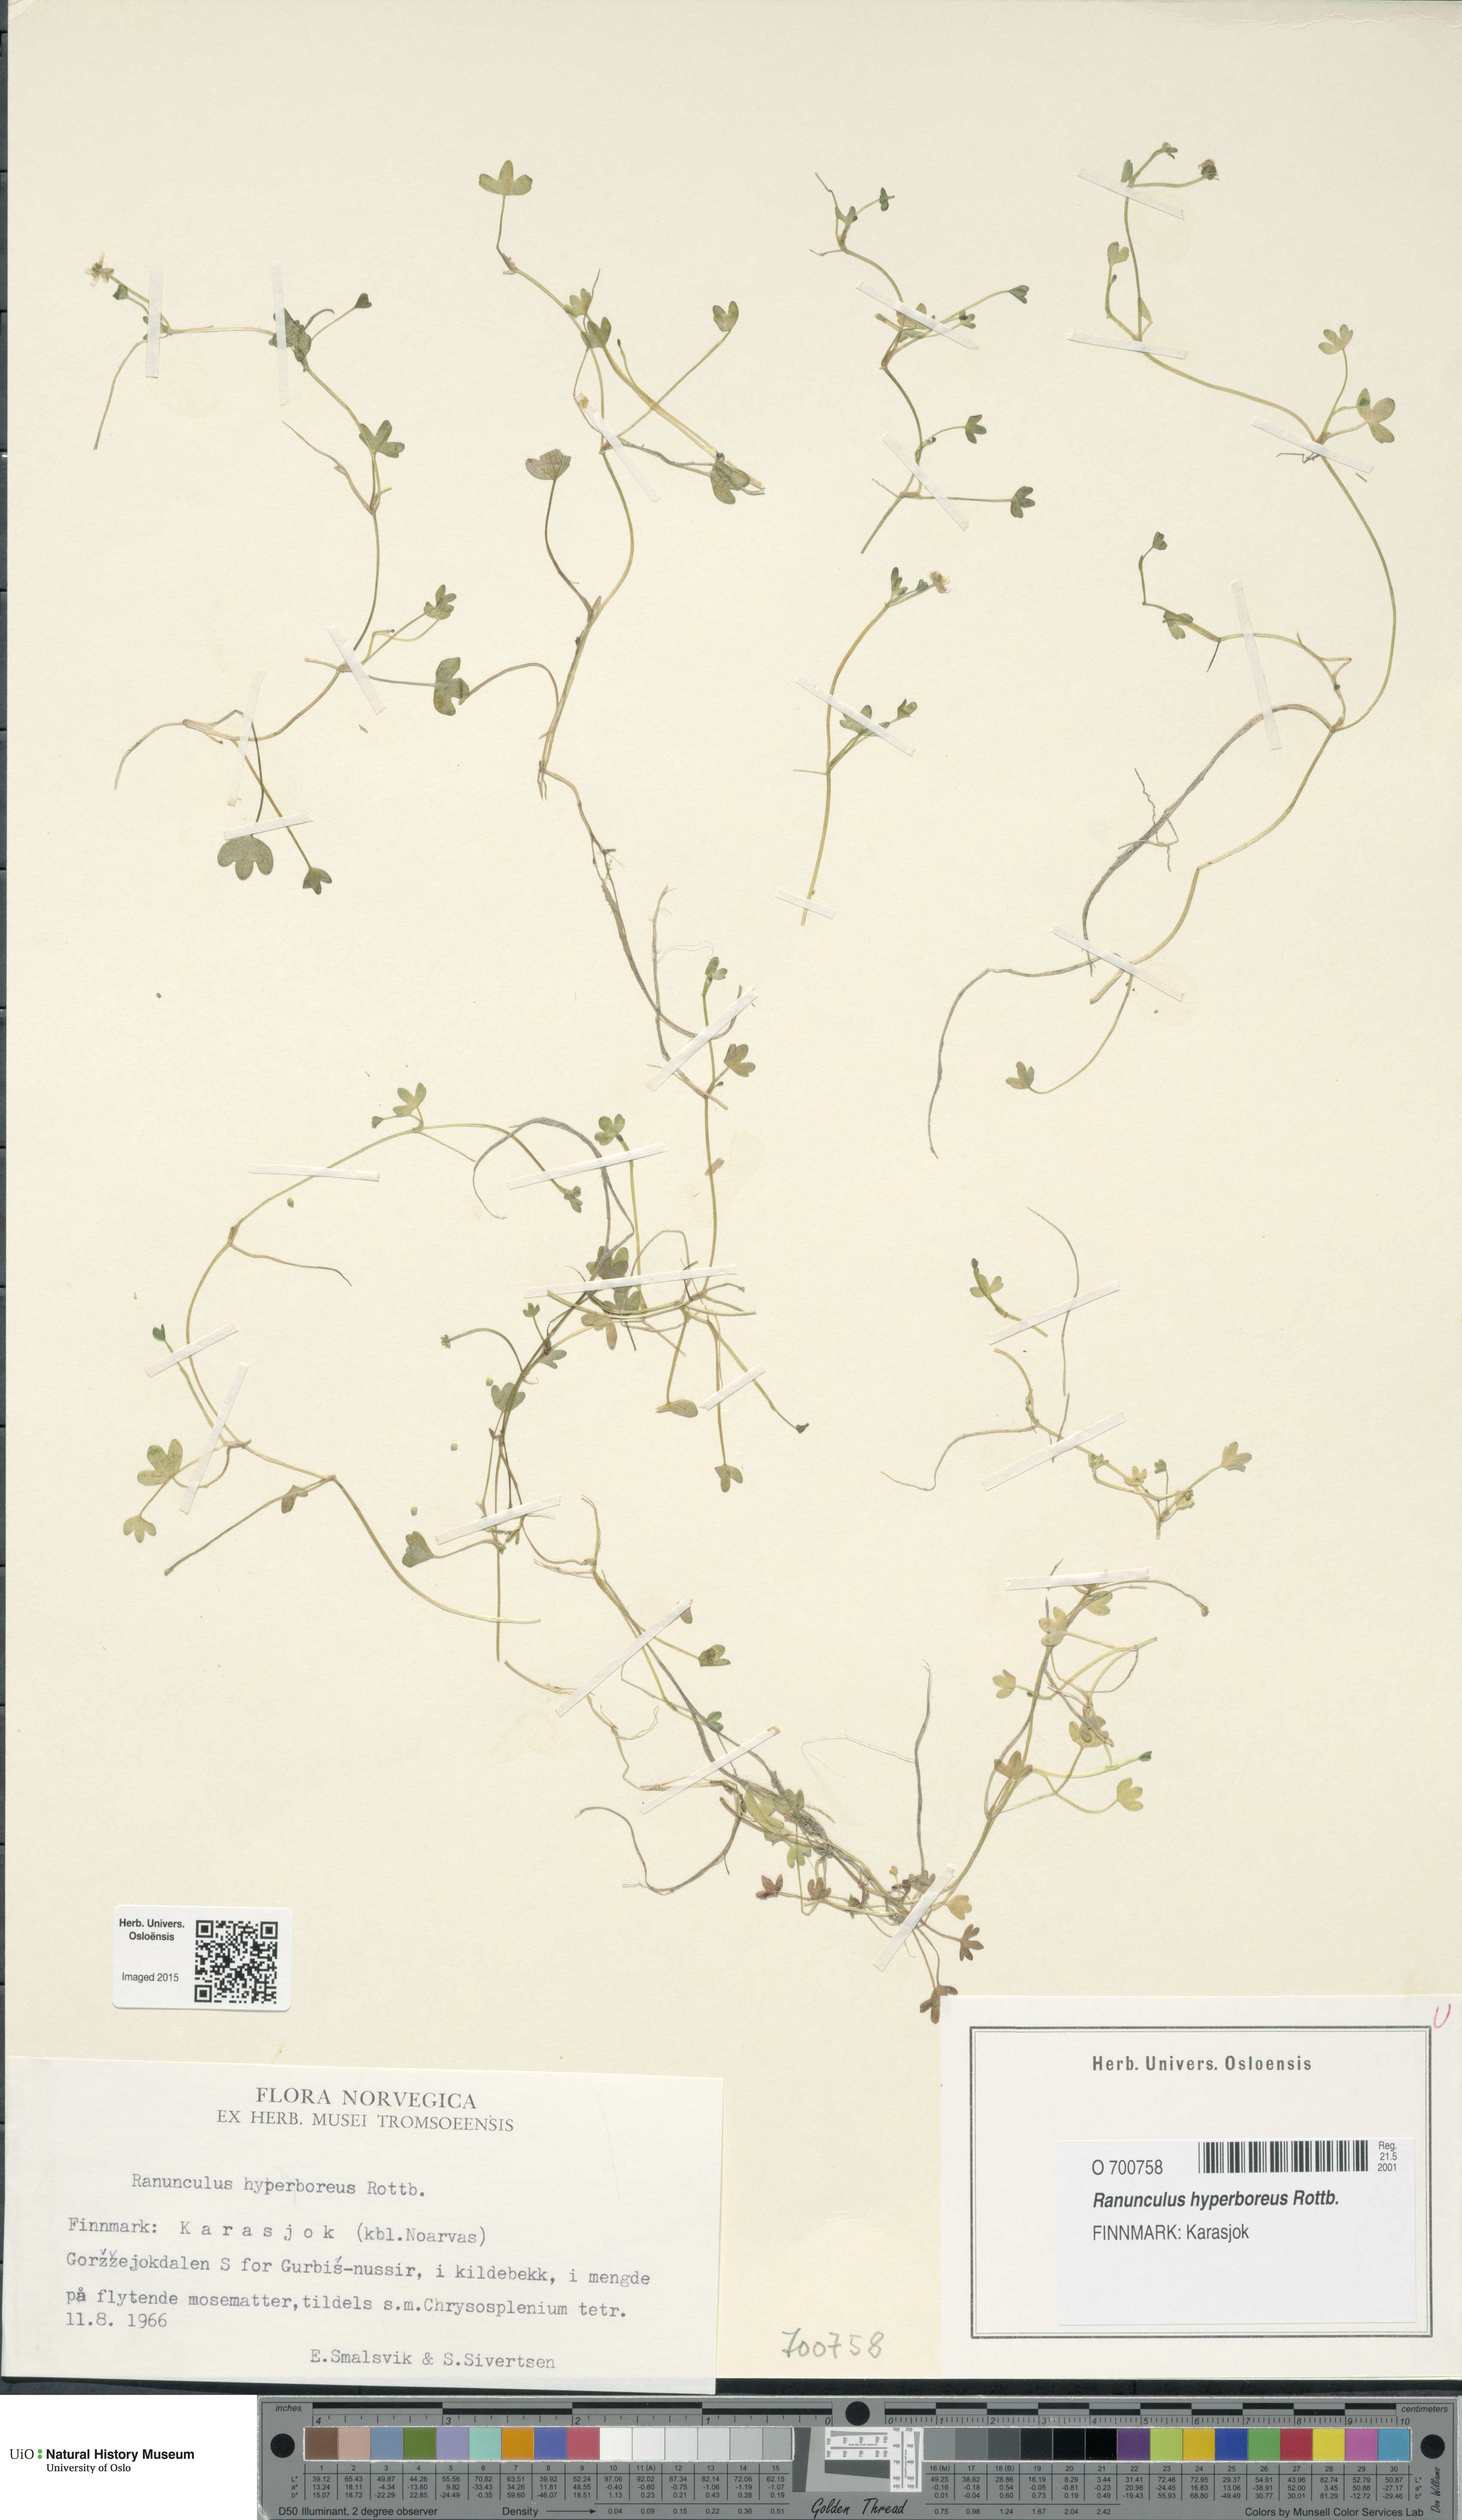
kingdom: Plantae
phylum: Tracheophyta
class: Magnoliopsida
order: Ranunculales
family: Ranunculaceae
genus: Ranunculus
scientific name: Ranunculus hyperboreus
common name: Arctic buttercup
